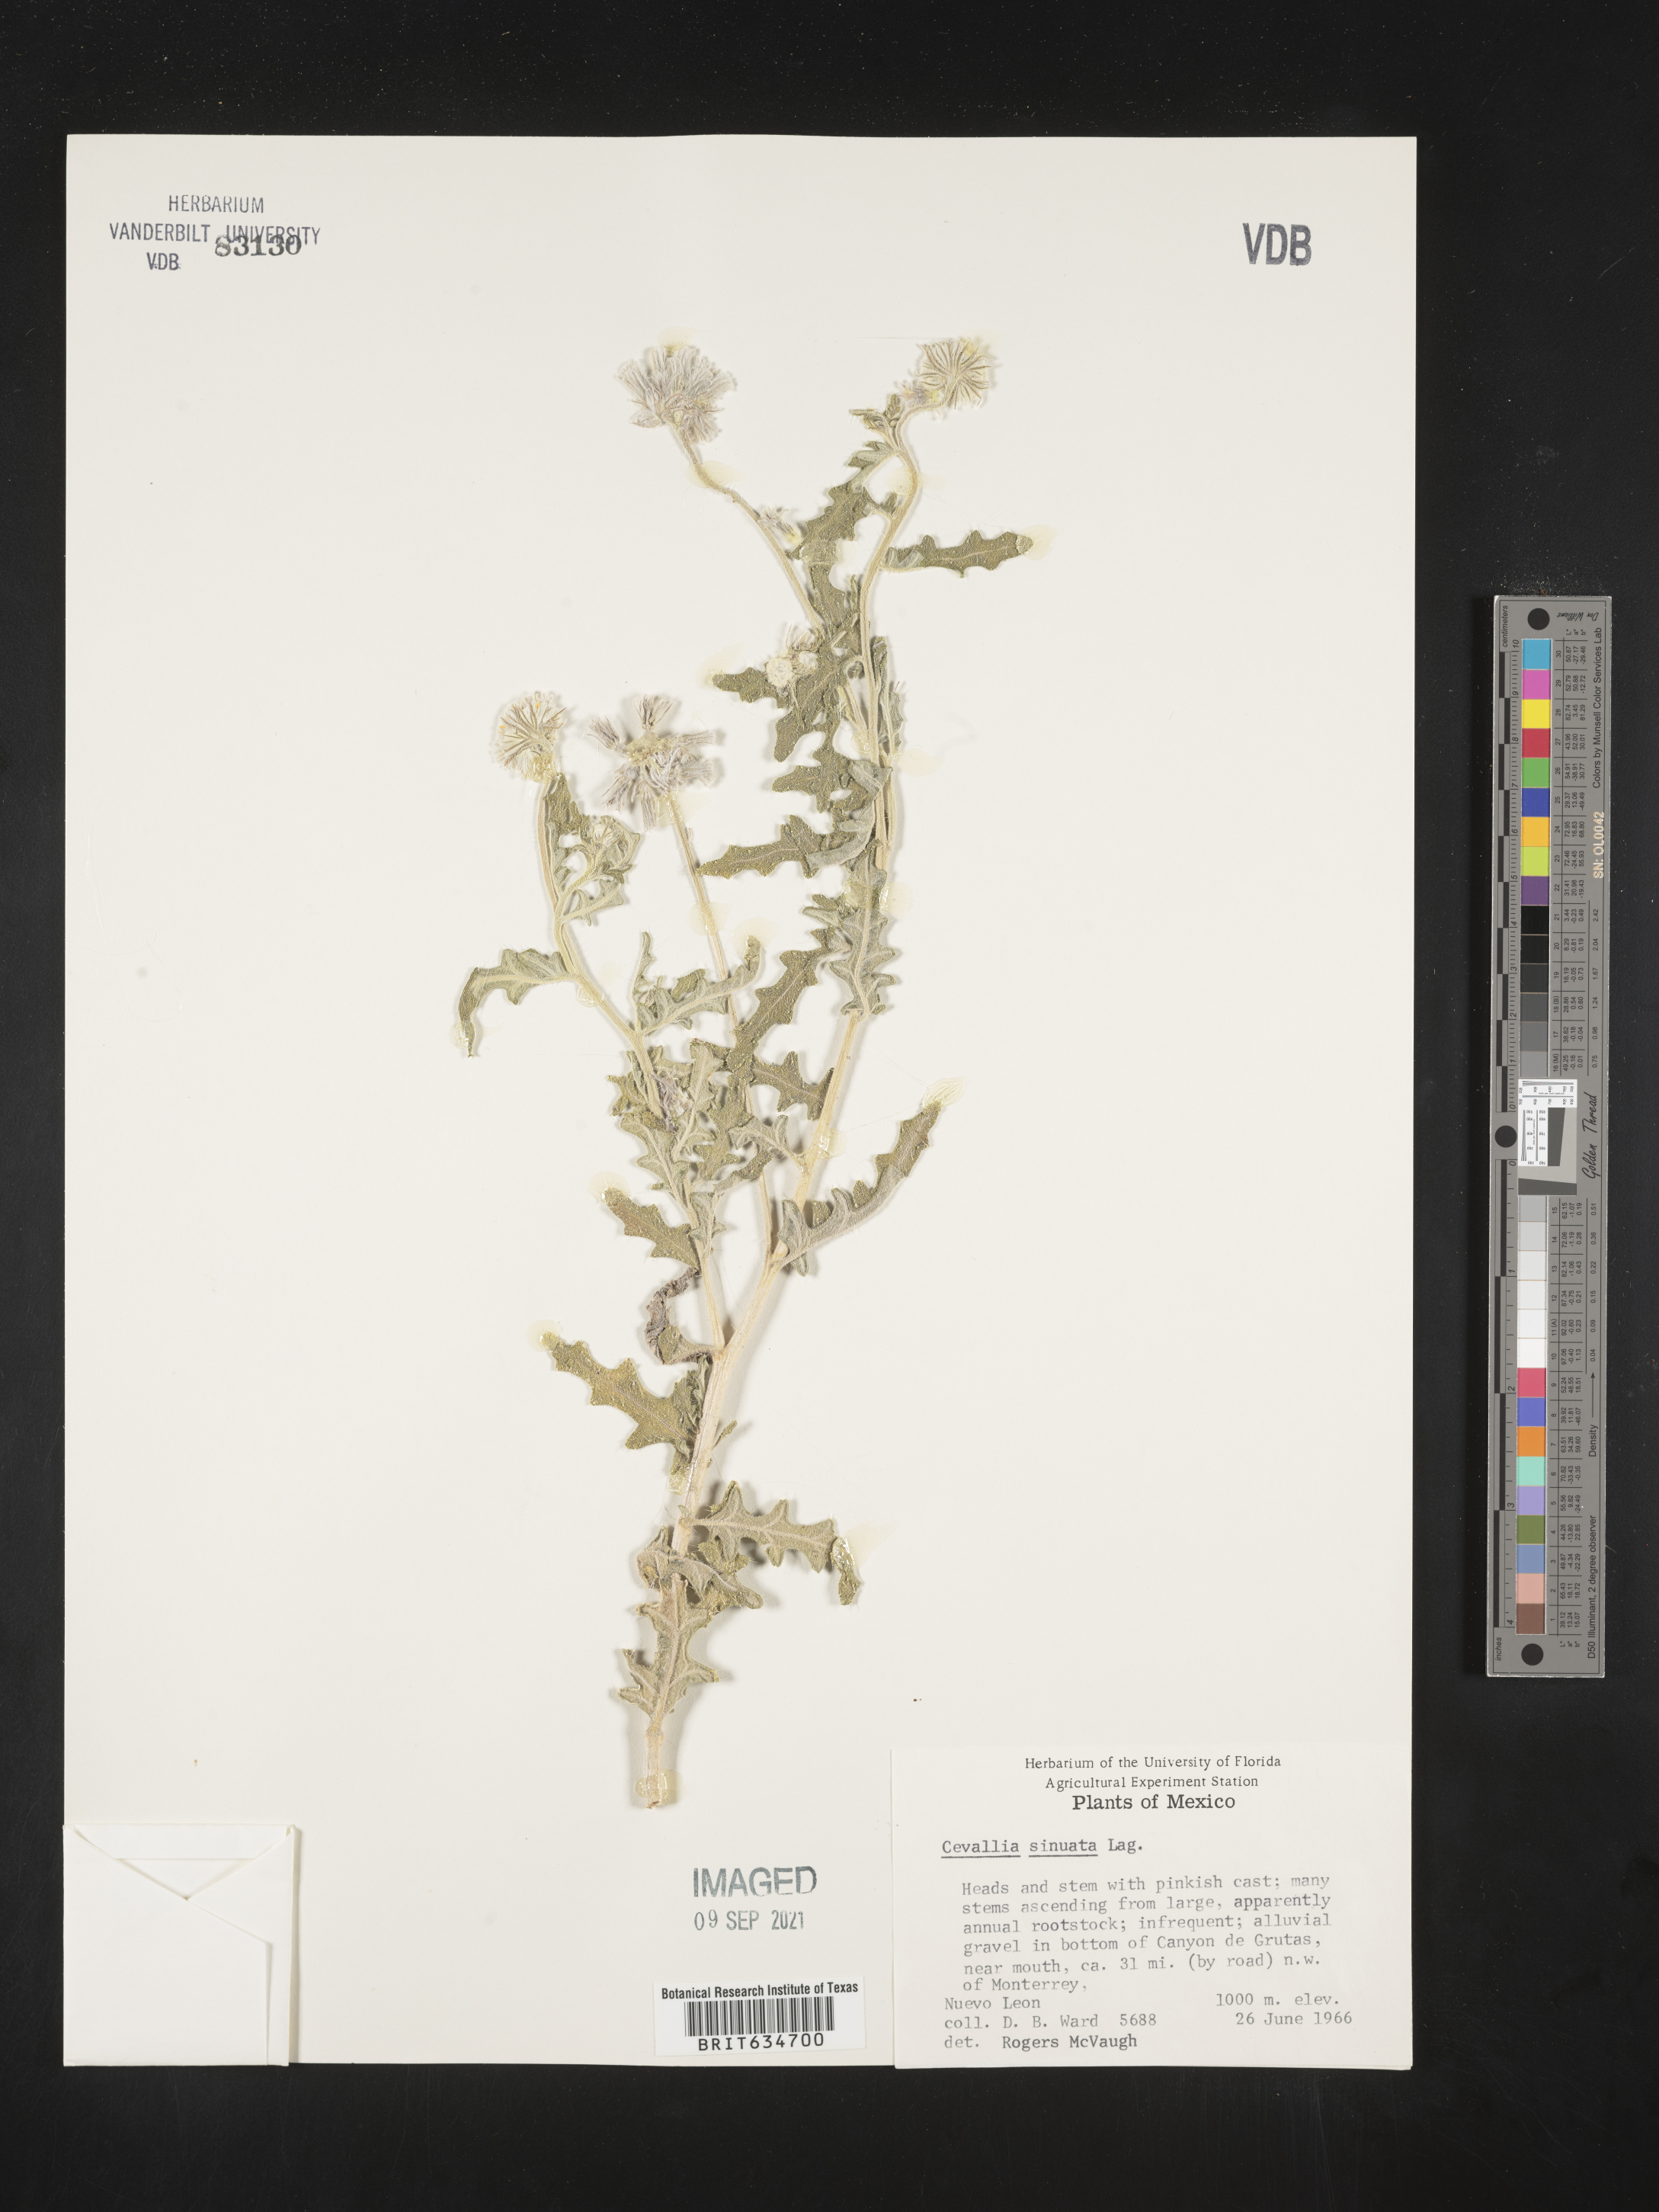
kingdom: Plantae
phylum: Tracheophyta
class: Magnoliopsida
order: Cornales
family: Loasaceae
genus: Cevallia
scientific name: Cevallia
